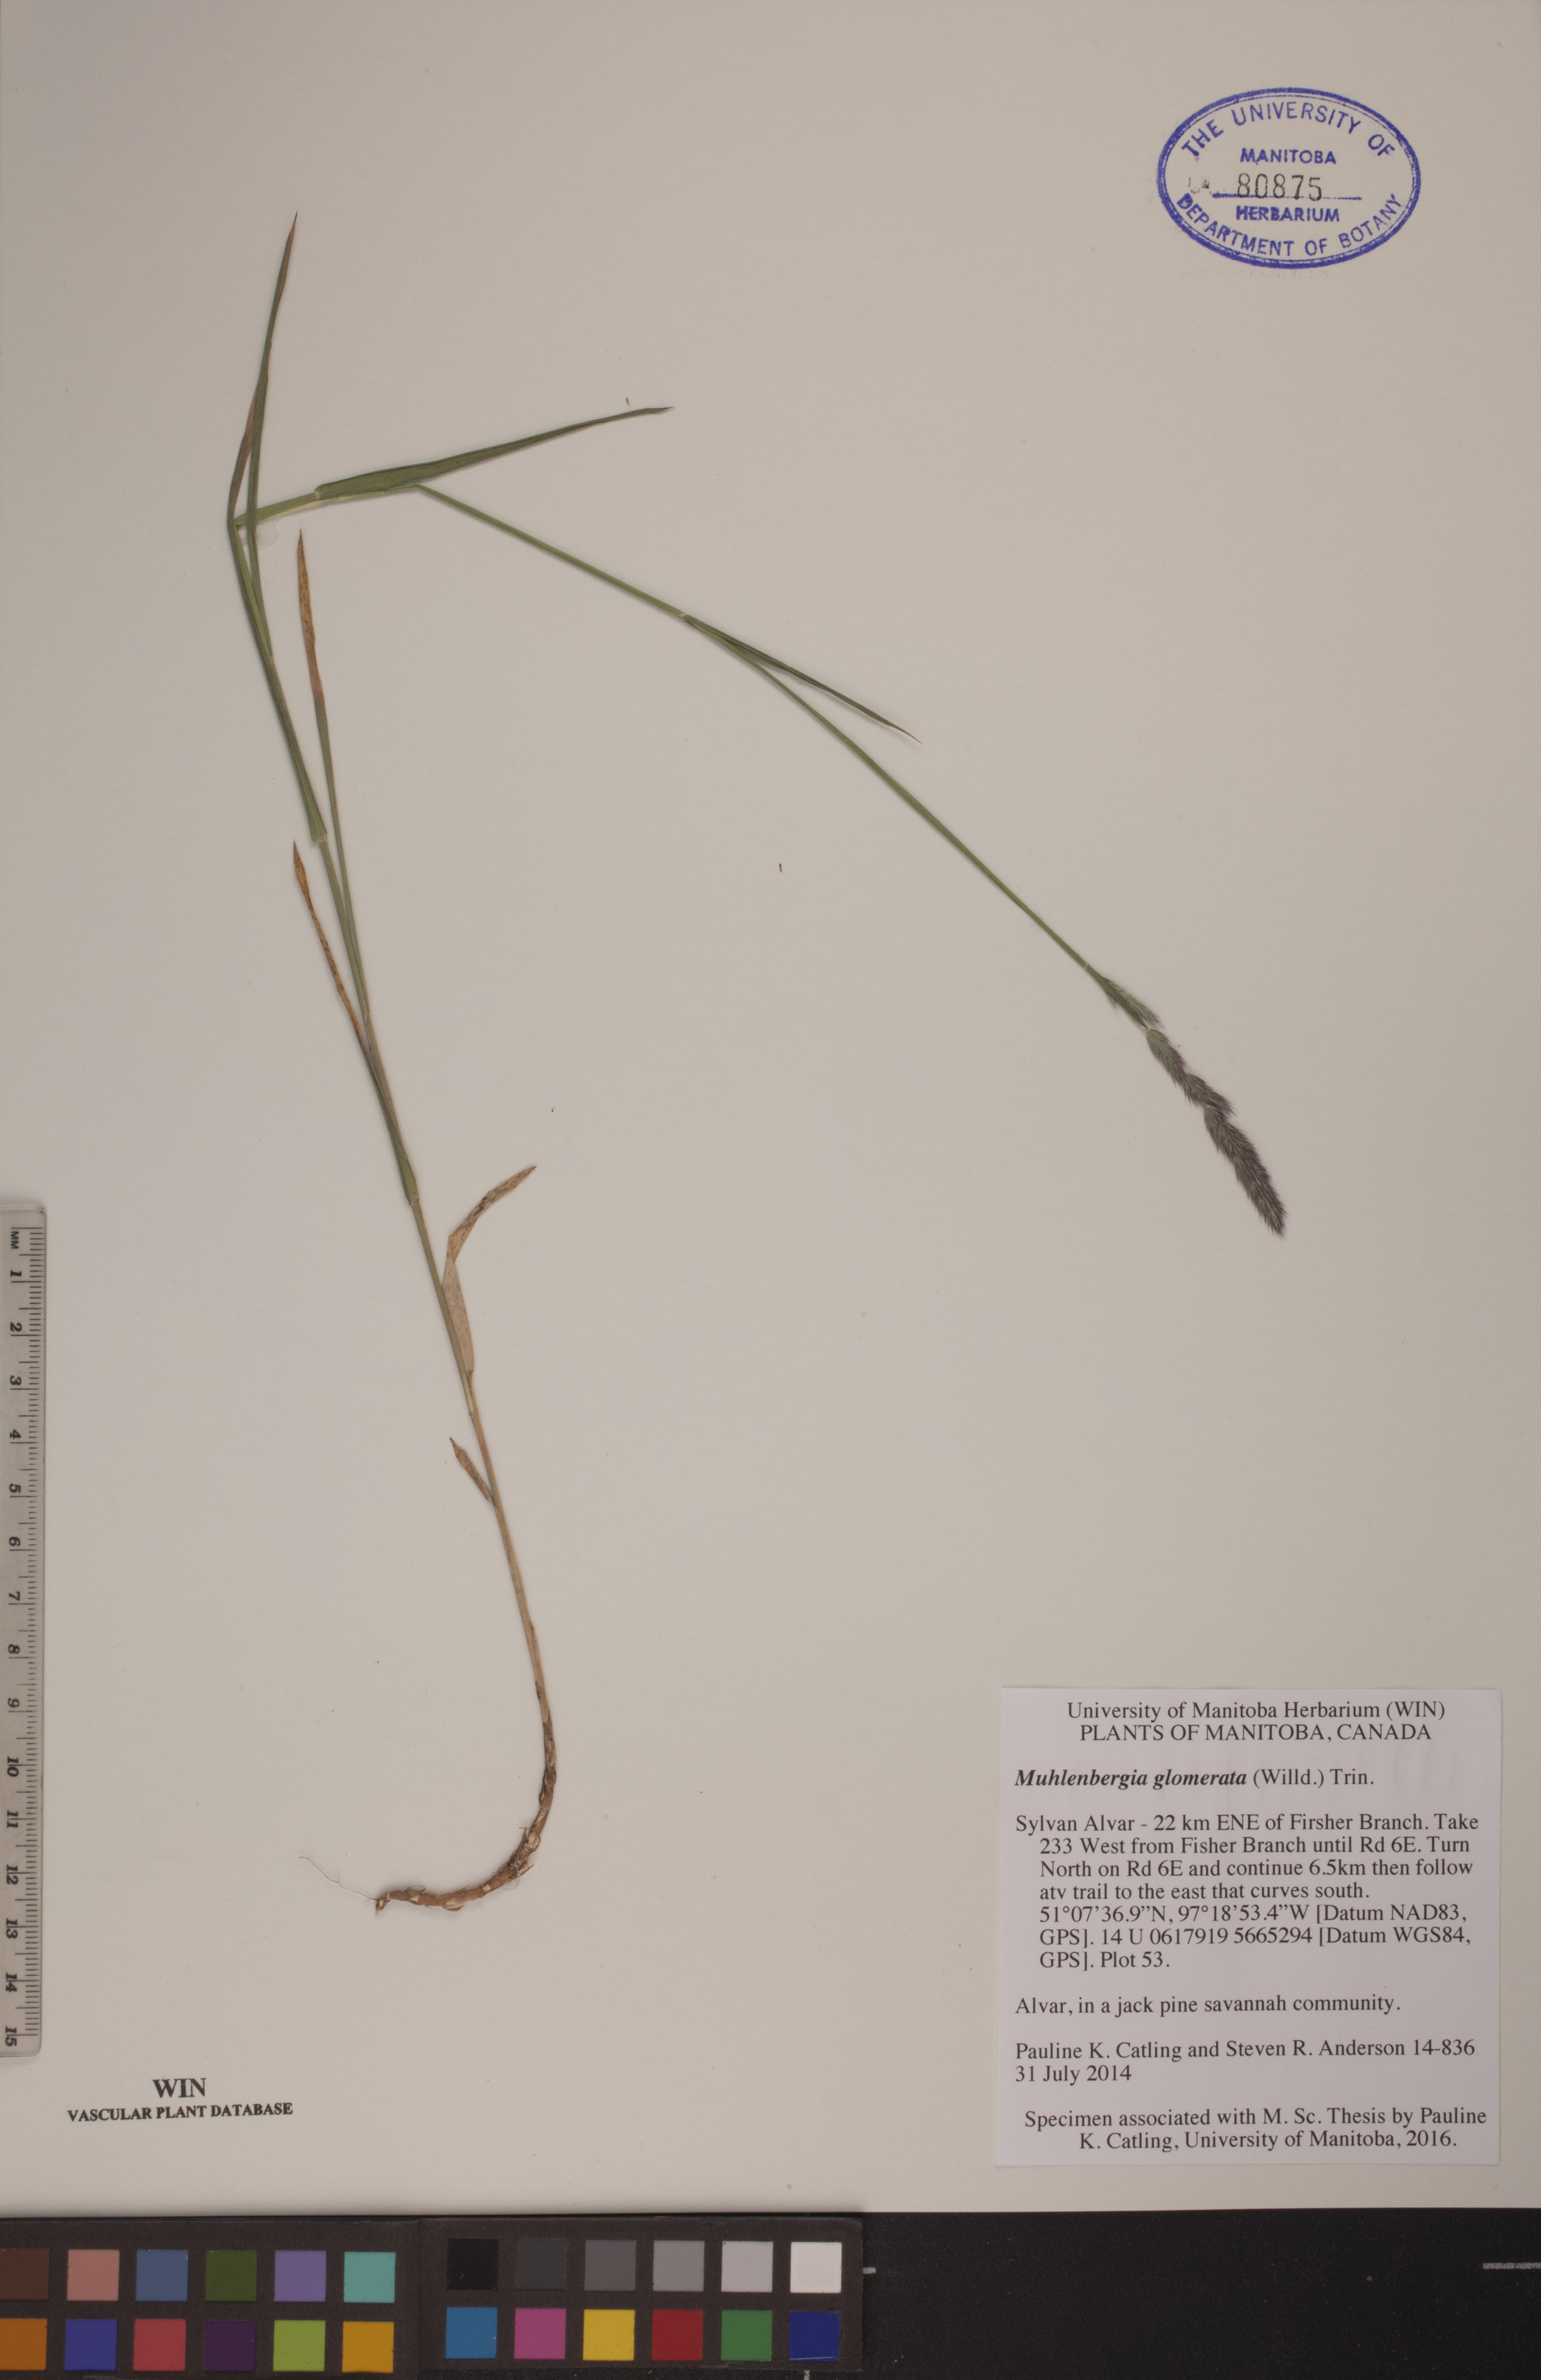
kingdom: Plantae
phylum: Tracheophyta
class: Liliopsida
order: Poales
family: Poaceae
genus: Muhlenbergia
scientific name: Muhlenbergia glomerata
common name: Bog muhly
